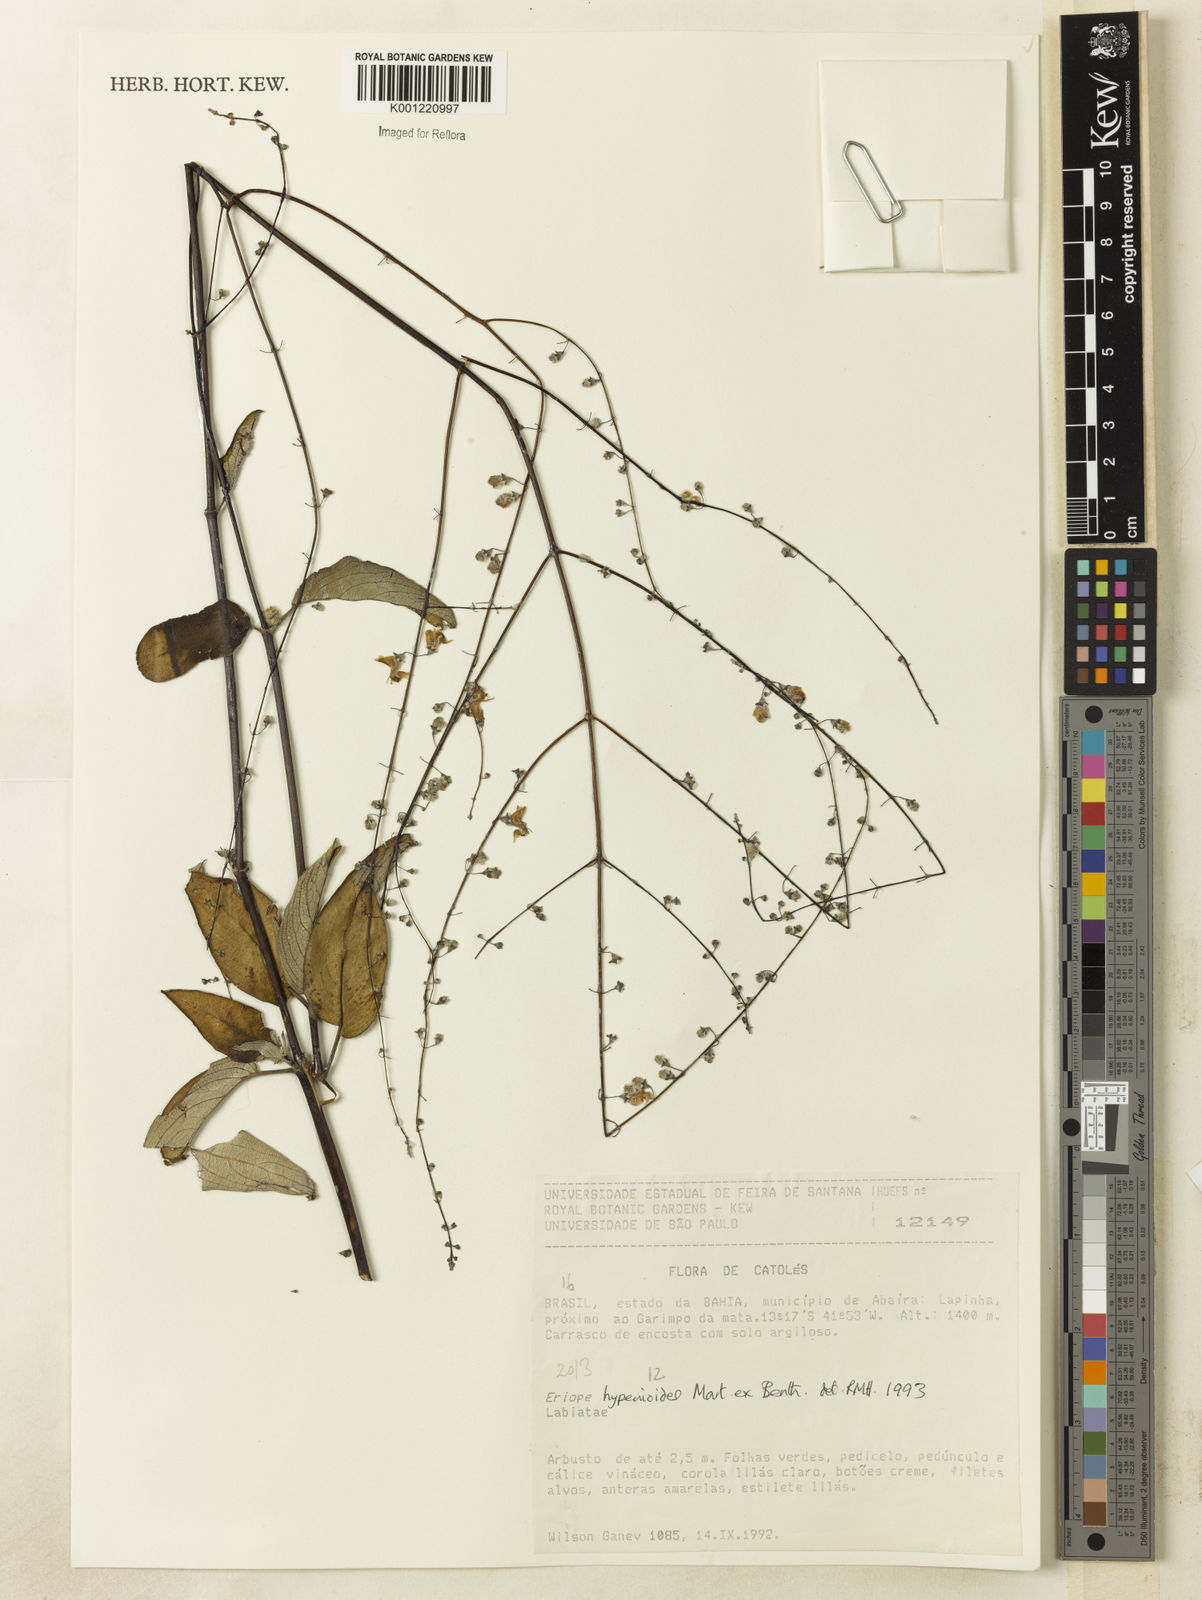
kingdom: Plantae
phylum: Tracheophyta
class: Magnoliopsida
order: Lamiales
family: Lamiaceae
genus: Eriope
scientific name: Eriope hypenioides
